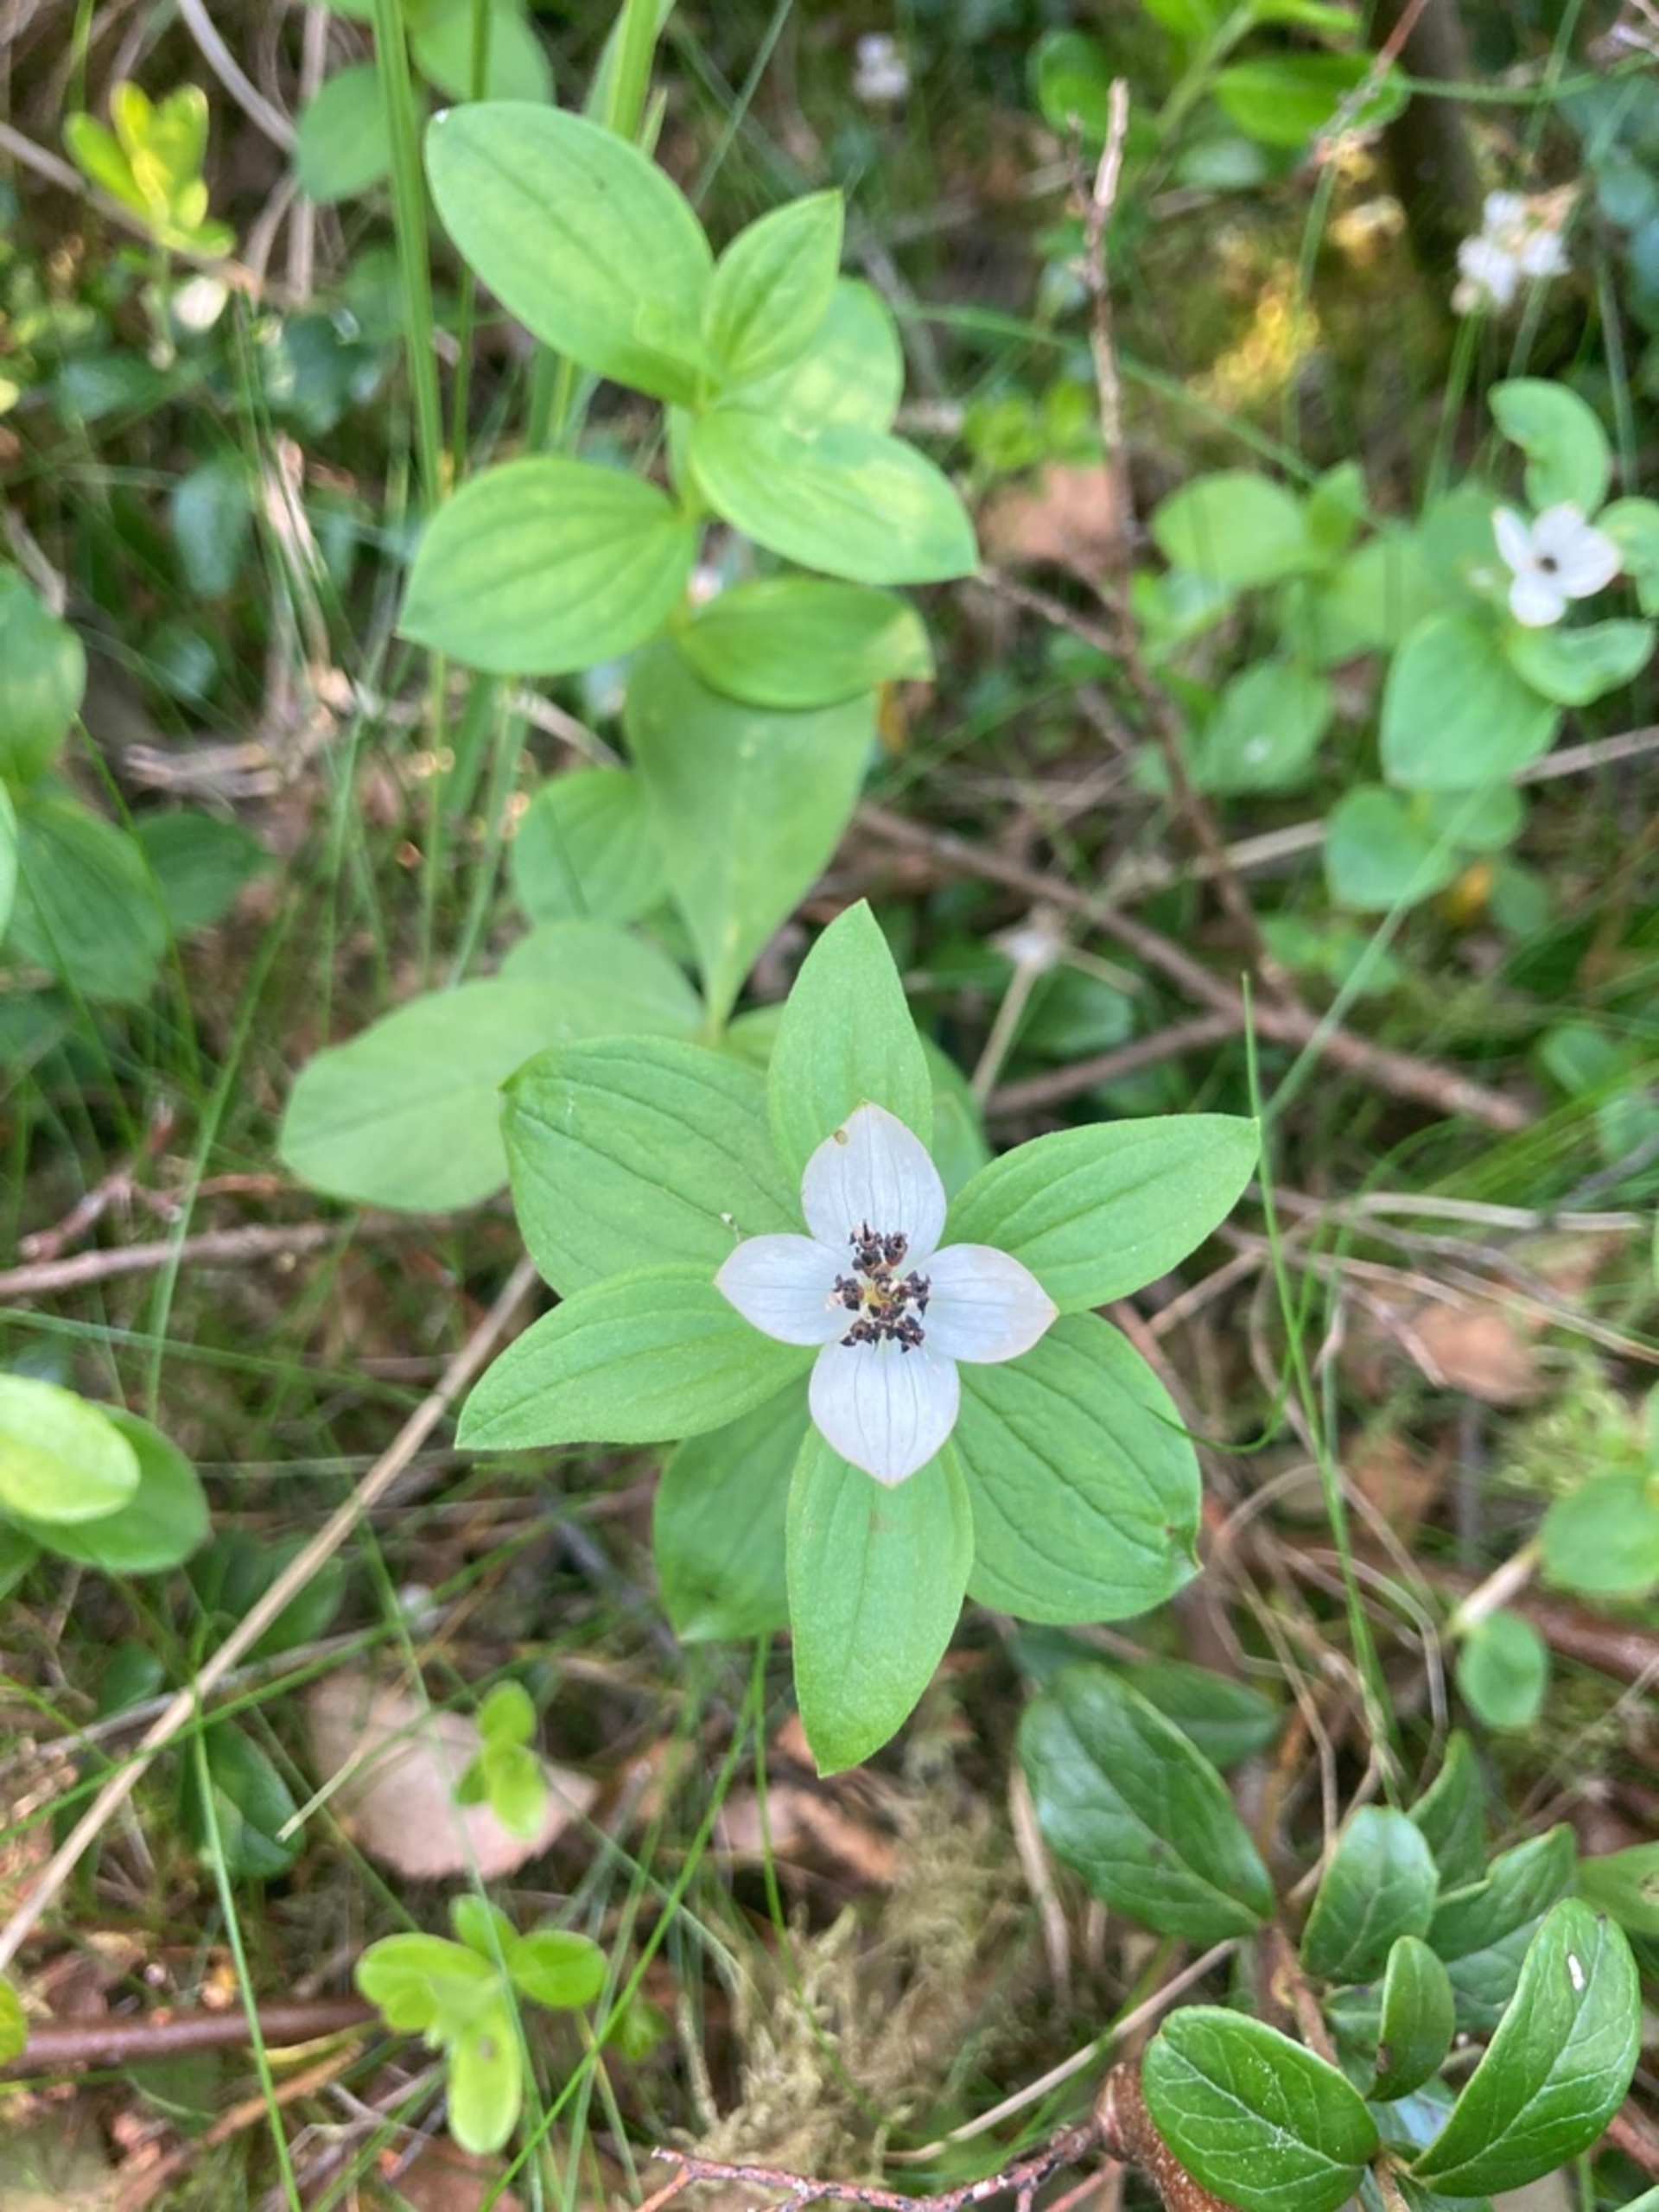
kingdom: Plantae
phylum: Tracheophyta
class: Magnoliopsida
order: Cornales
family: Cornaceae
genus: Cornus
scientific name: Cornus suecica
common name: Hønsebær
